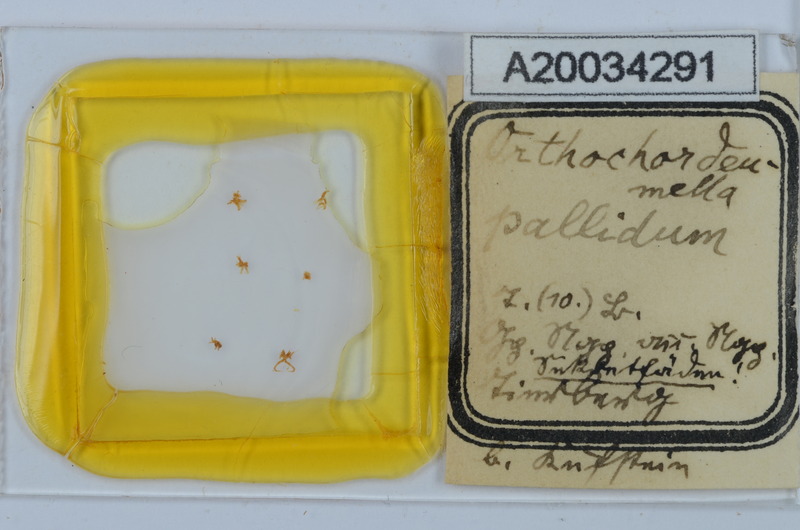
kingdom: Animalia
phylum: Arthropoda
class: Diplopoda
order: Chordeumatida
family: Chordeumatidae
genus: Orthochordeumella
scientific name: Orthochordeumella pallida
